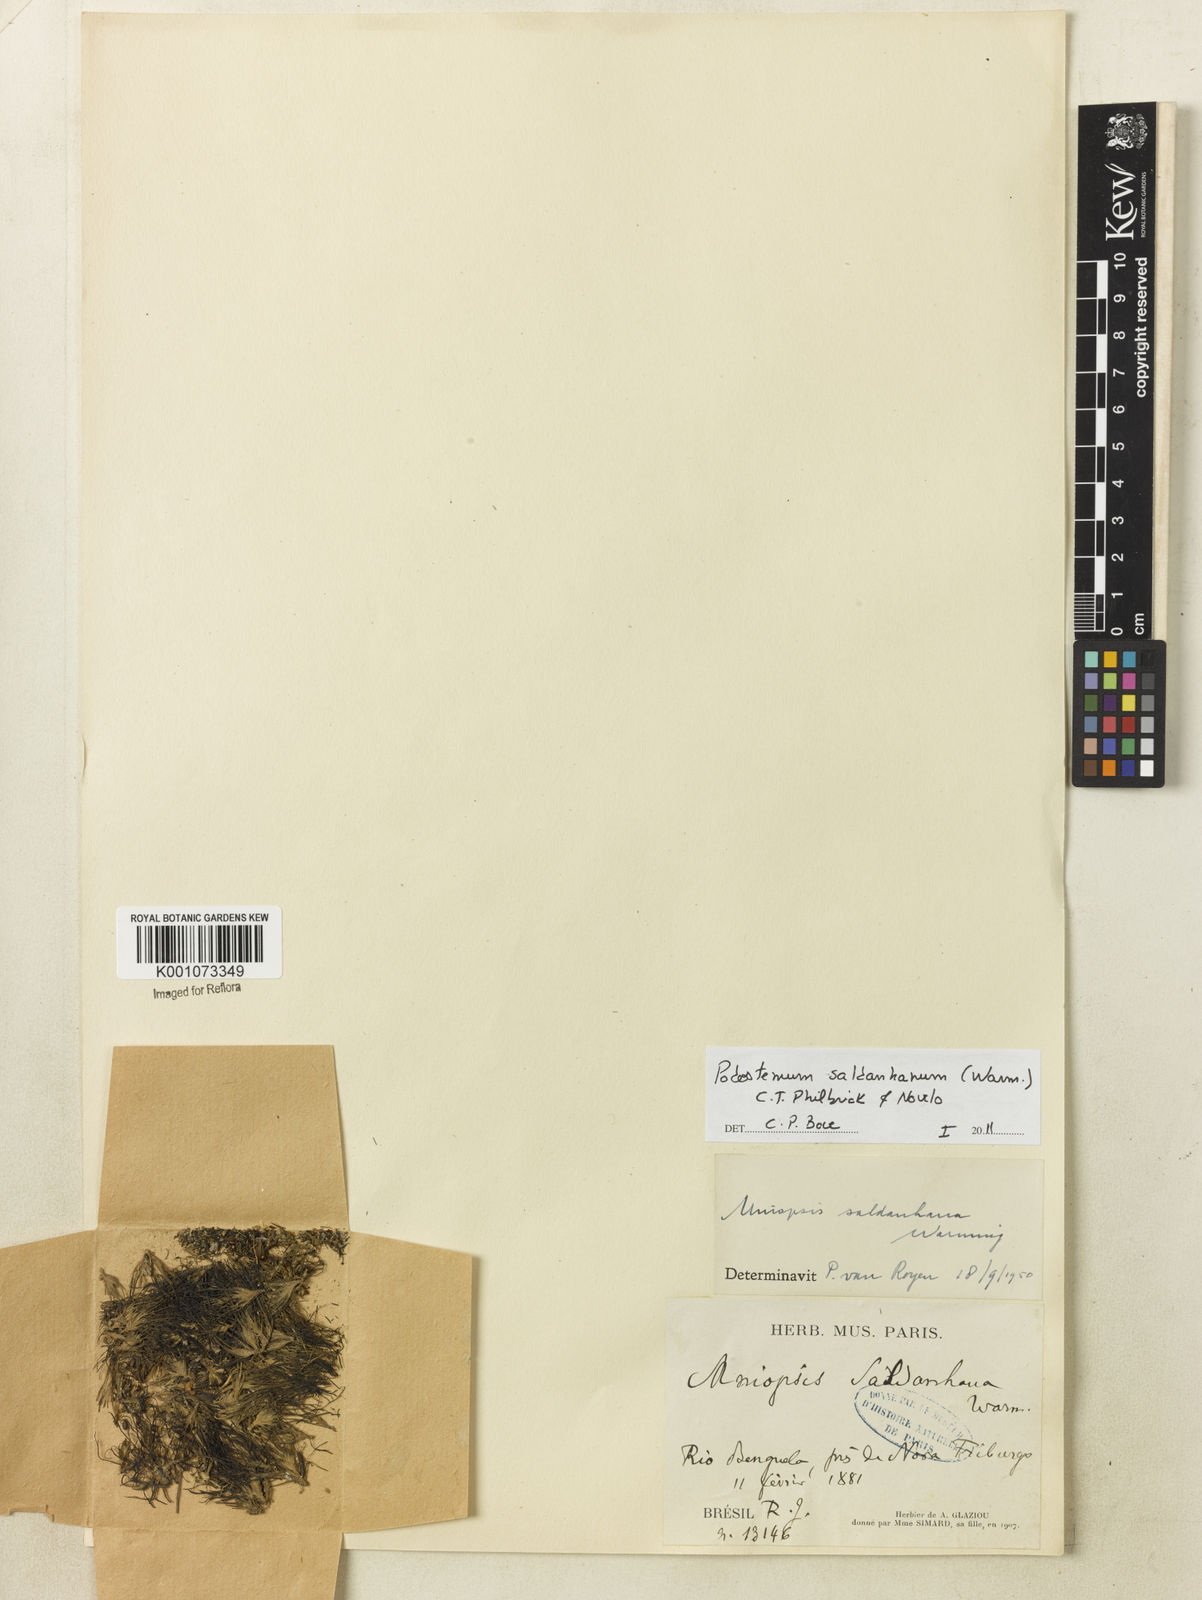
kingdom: Plantae
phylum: Tracheophyta
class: Magnoliopsida
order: Malpighiales
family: Podostemaceae
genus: Podostemum
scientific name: Podostemum saldanhanum
